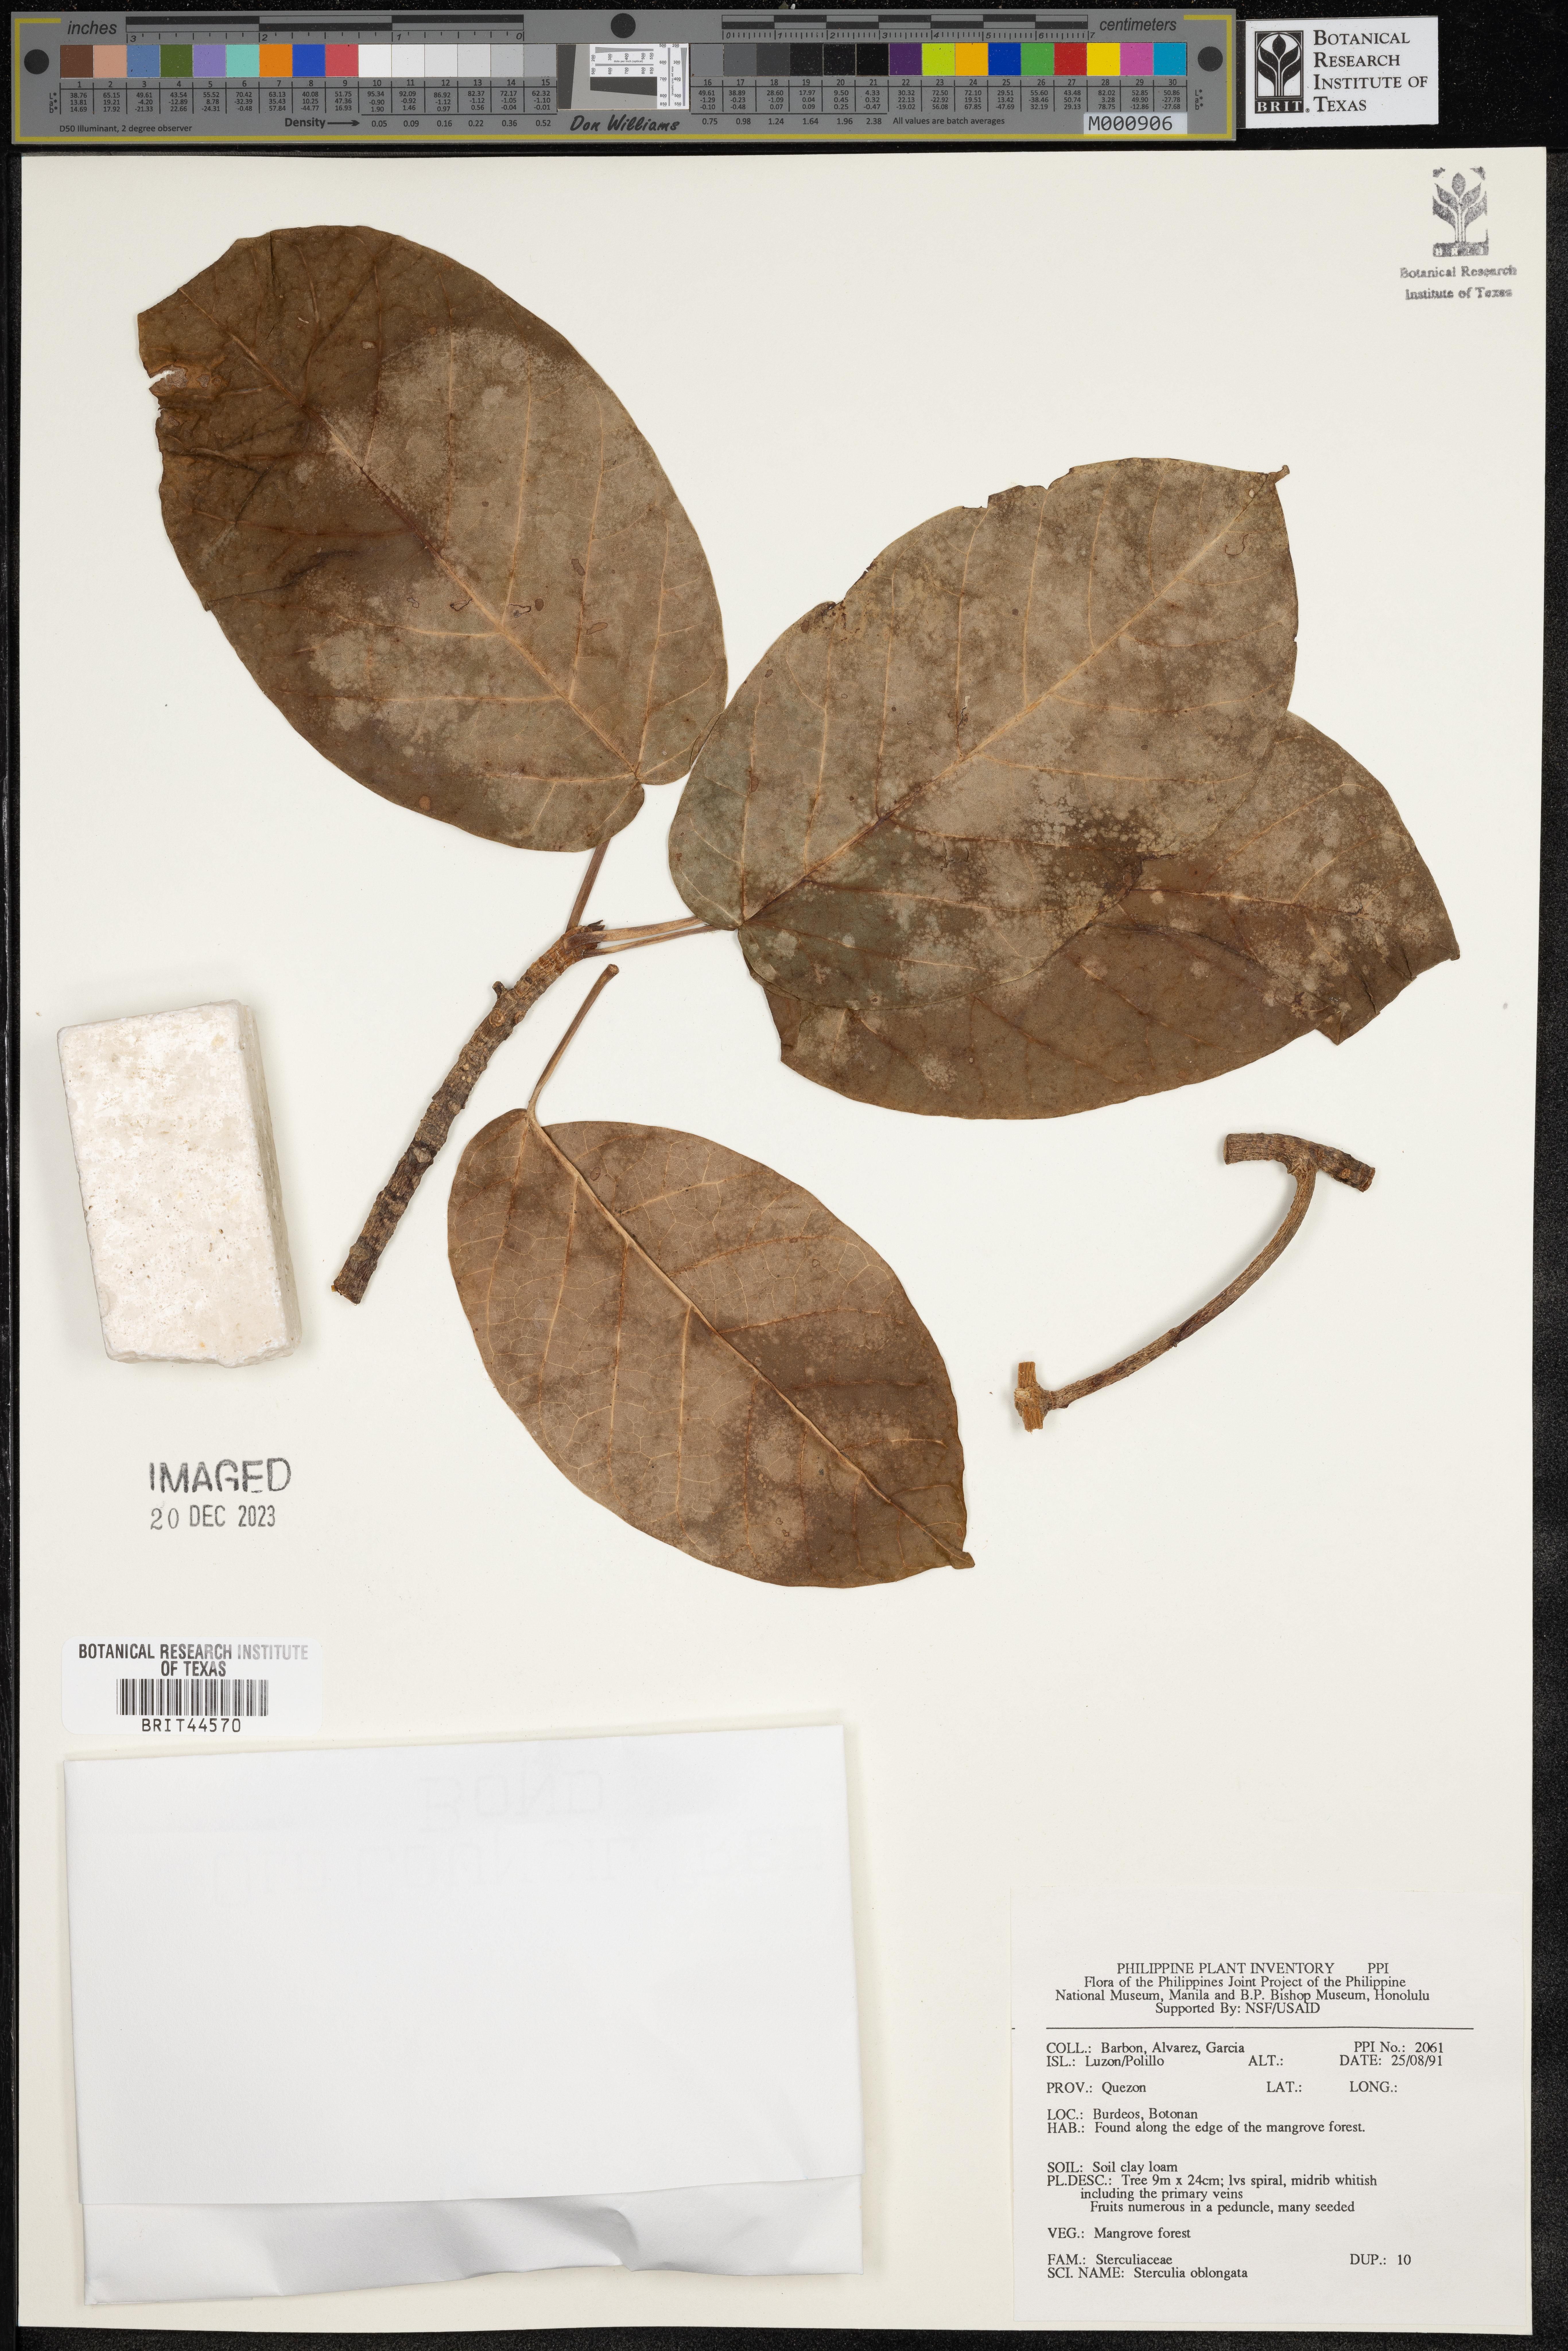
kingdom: Plantae
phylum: Tracheophyta
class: Magnoliopsida
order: Malvales
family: Malvaceae
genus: Sterculia
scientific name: Sterculia oblongata
